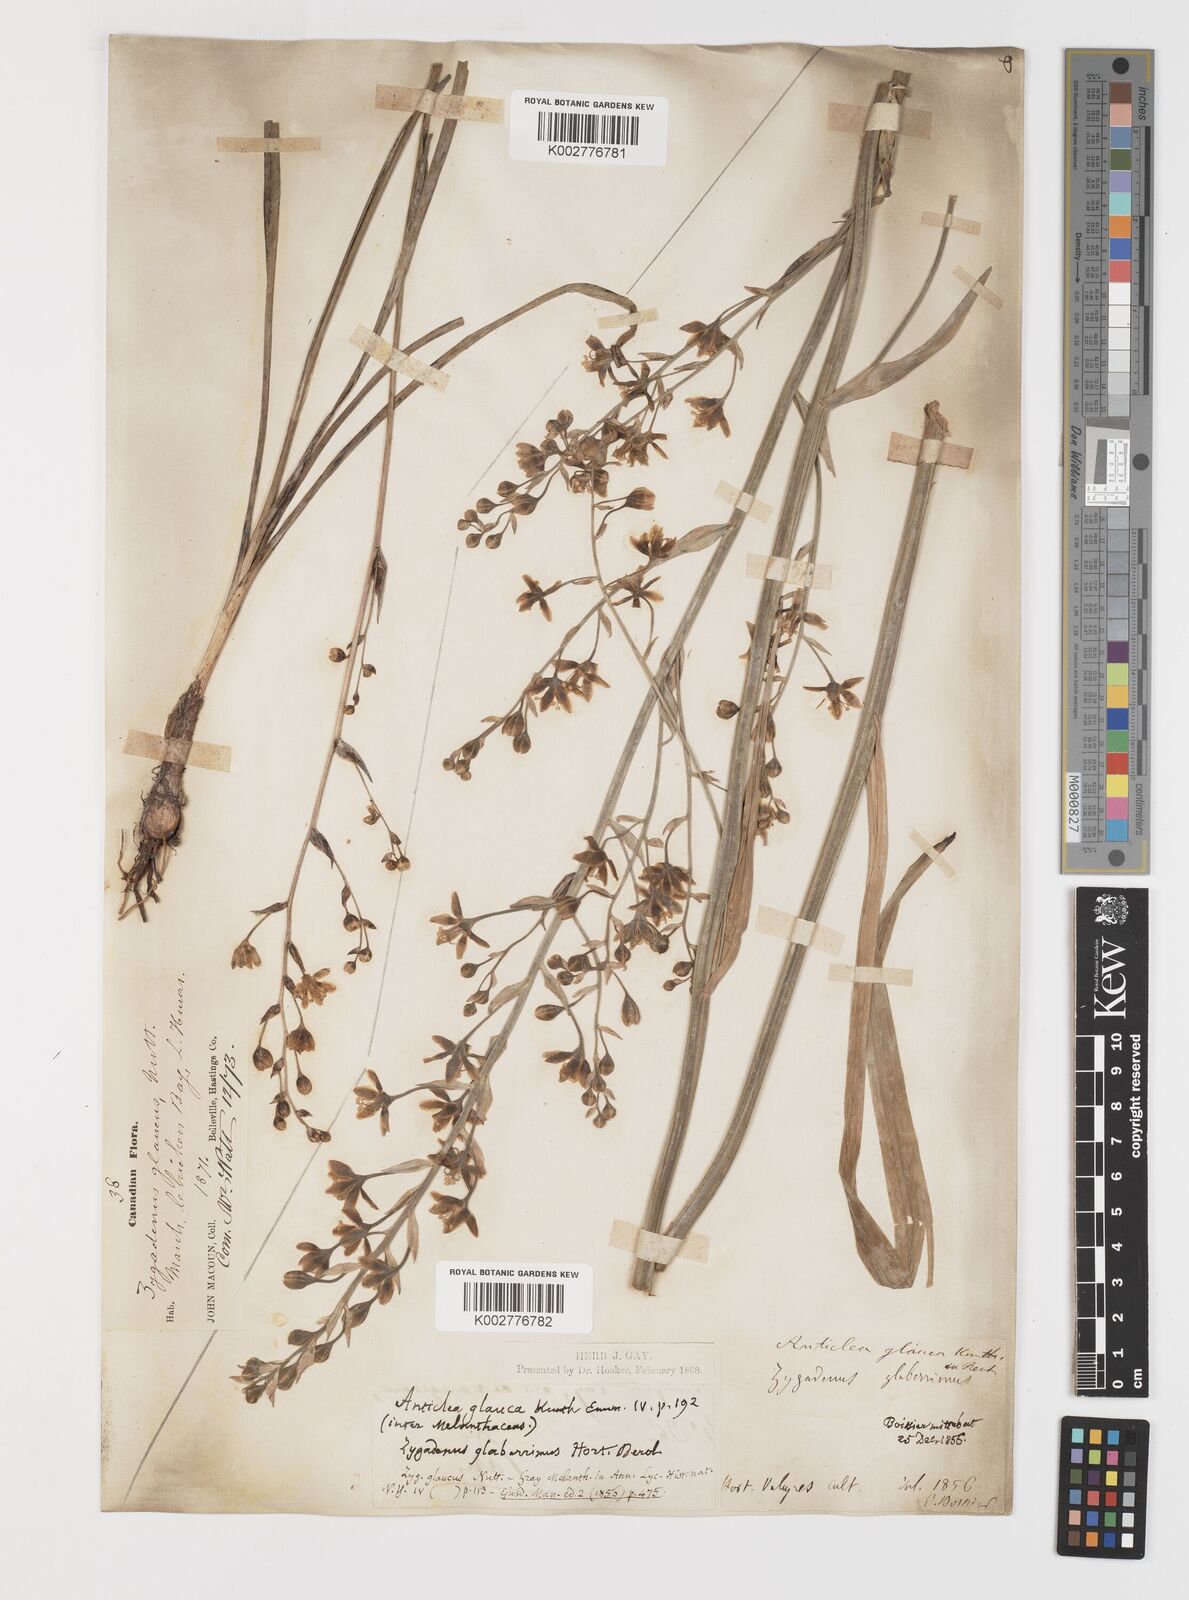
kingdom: Plantae
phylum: Tracheophyta
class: Liliopsida
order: Liliales
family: Melanthiaceae
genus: Anticlea
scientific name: Anticlea elegans
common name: Mountain death camas
